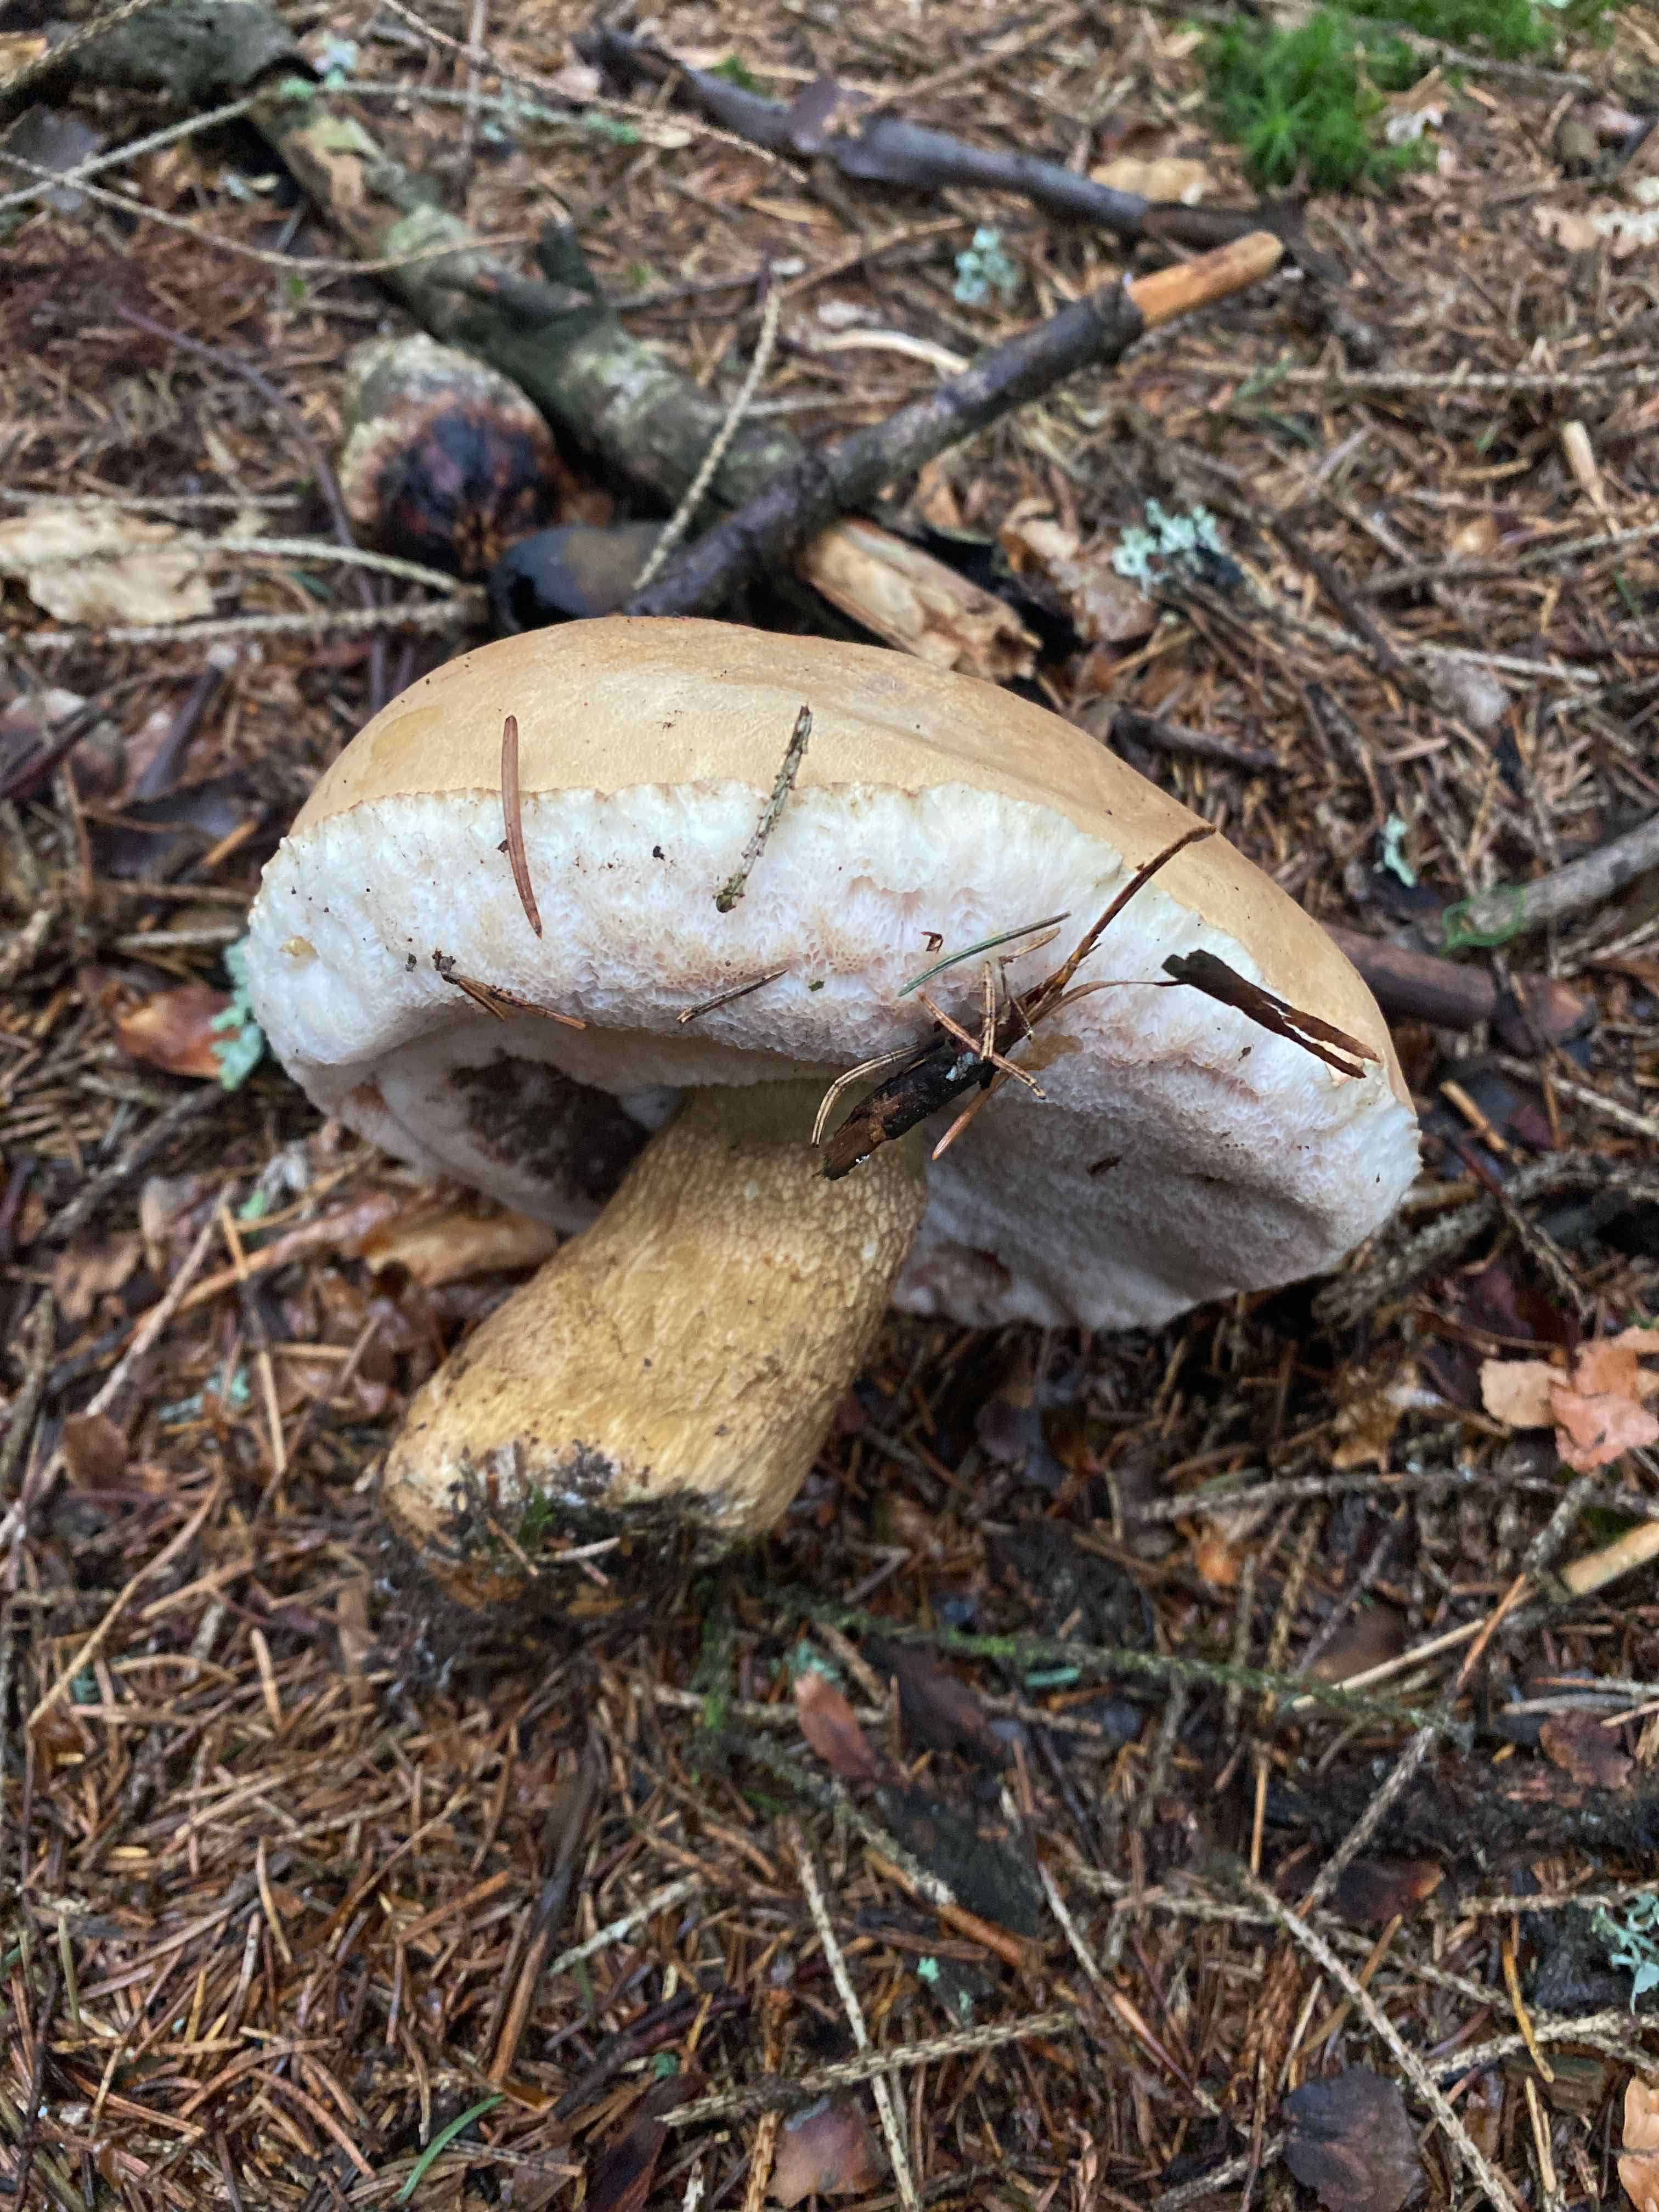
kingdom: Fungi
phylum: Basidiomycota
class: Agaricomycetes
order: Boletales
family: Boletaceae
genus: Tylopilus
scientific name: Tylopilus felleus
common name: galderørhat
